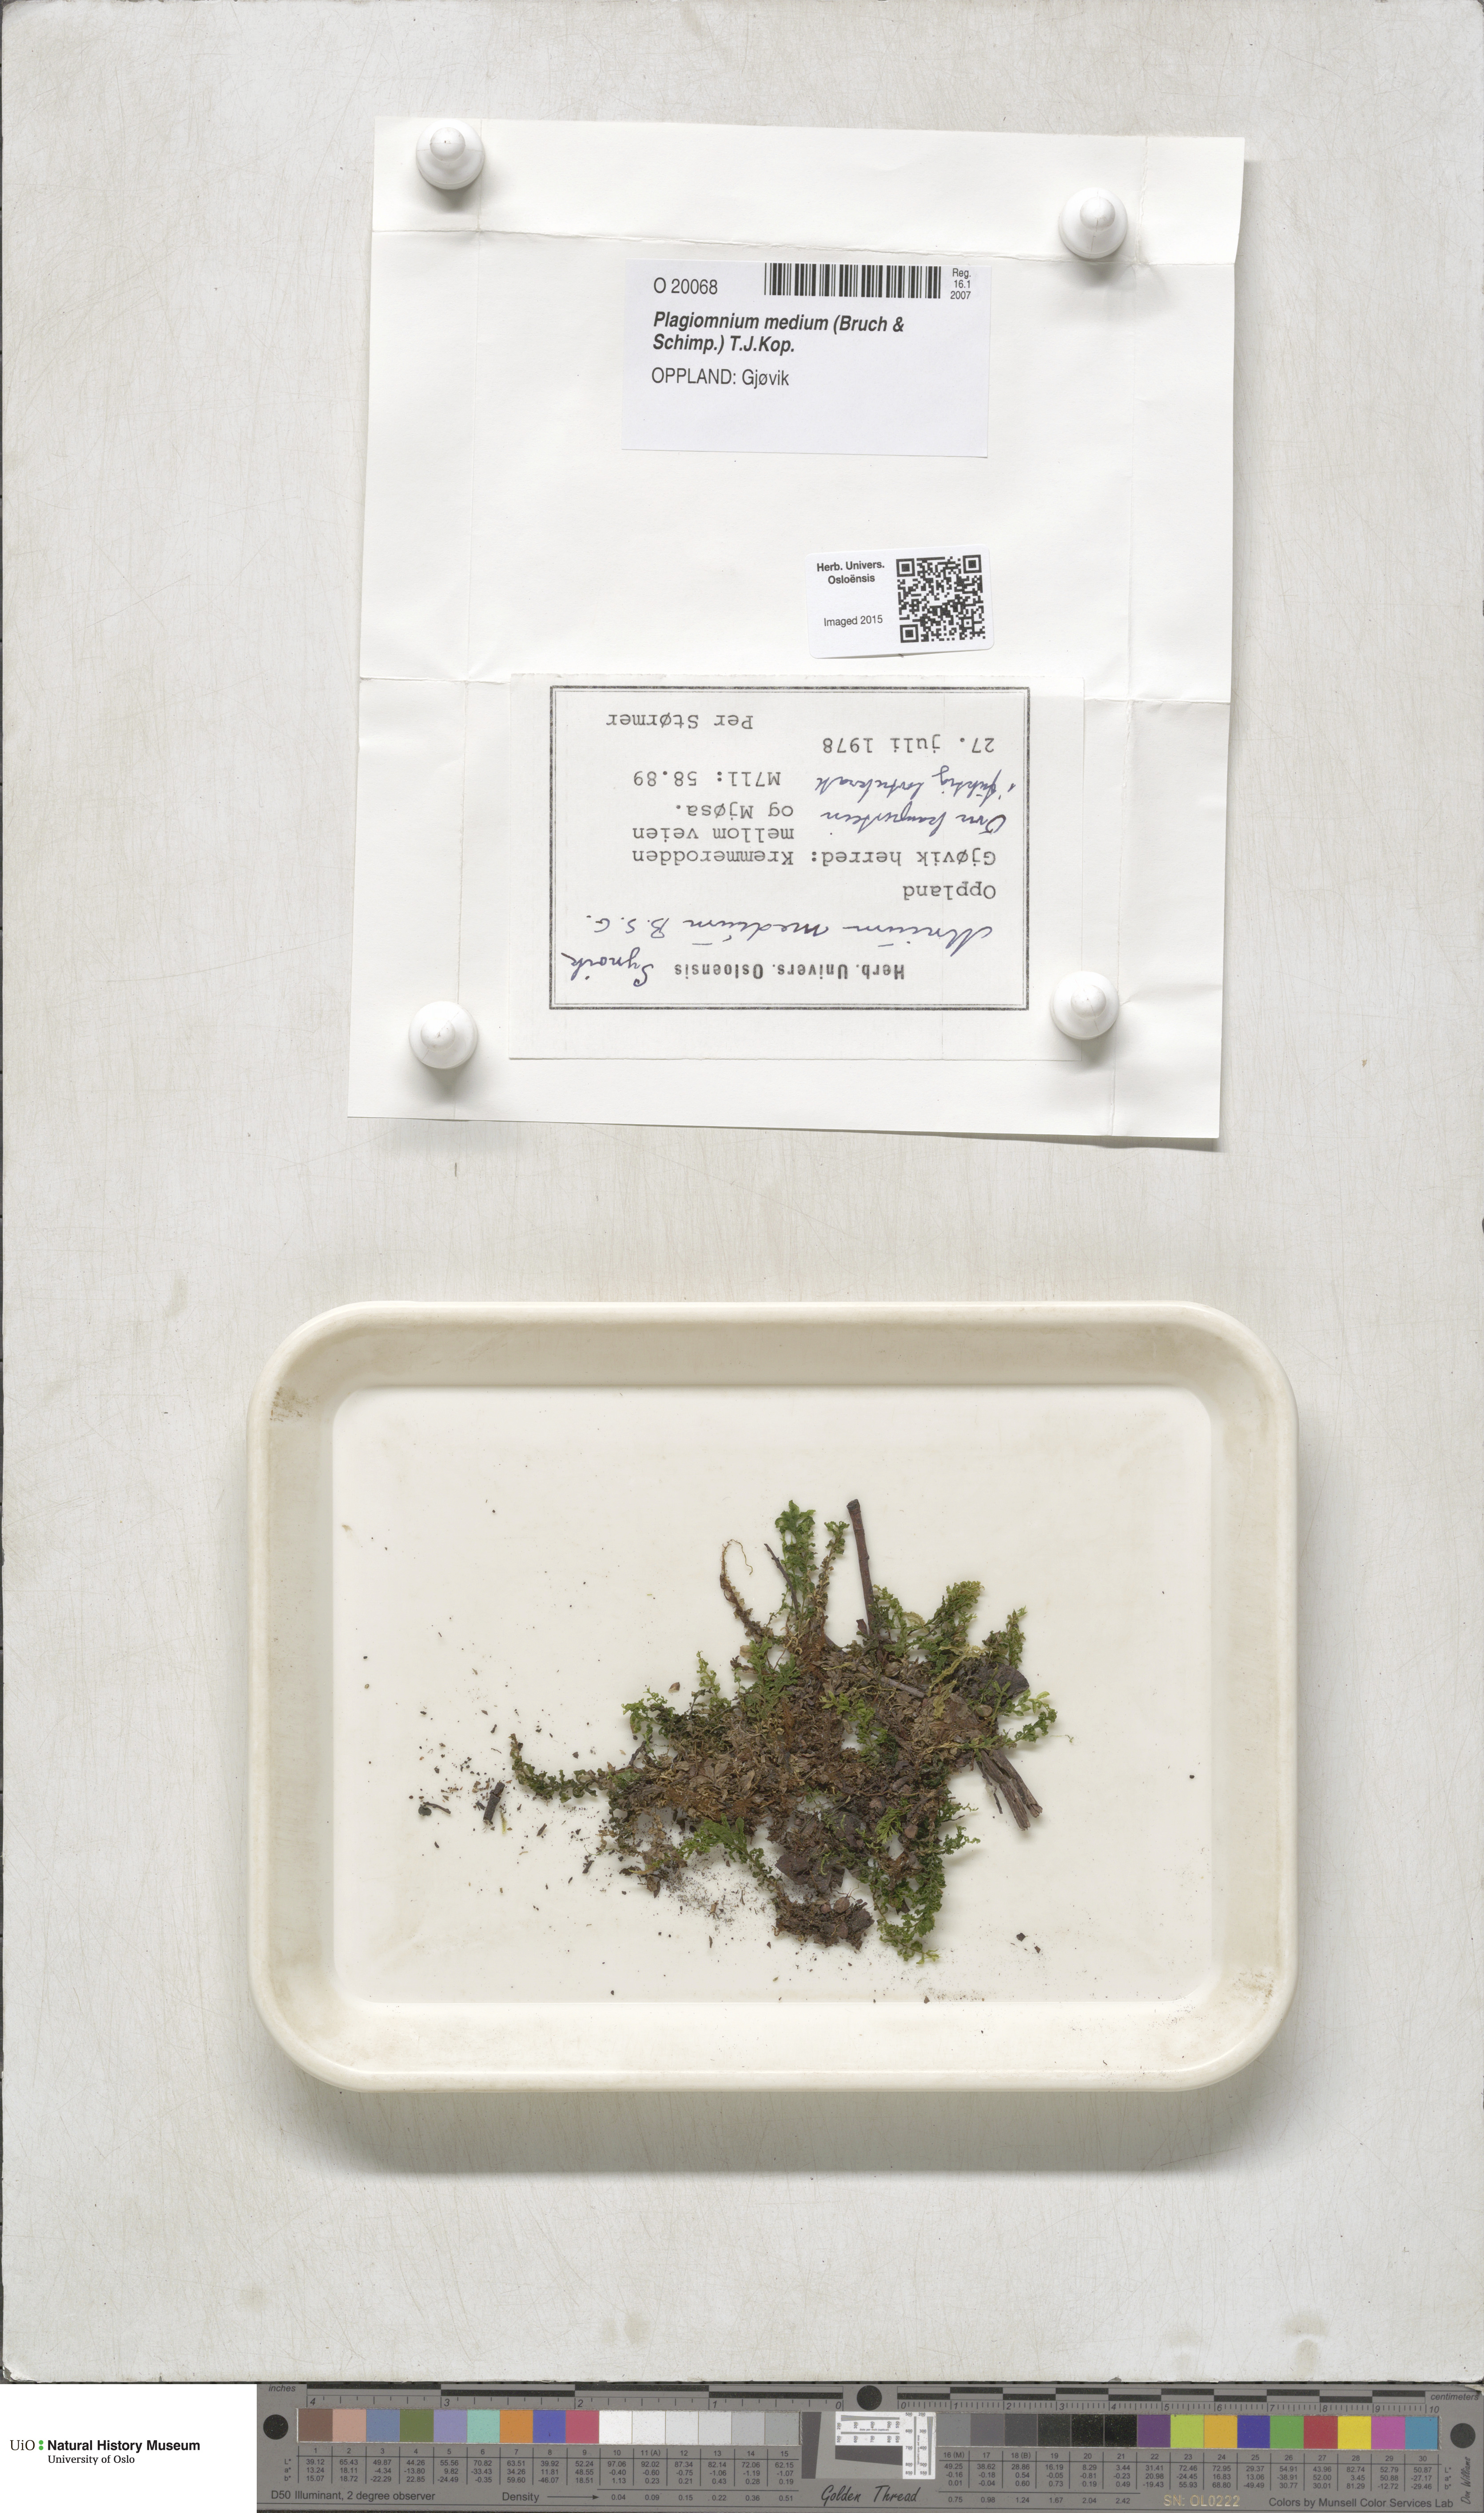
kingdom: Plantae
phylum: Bryophyta
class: Bryopsida
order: Bryales
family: Mniaceae
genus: Plagiomnium
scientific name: Plagiomnium medium
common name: Alpine leafy moss
